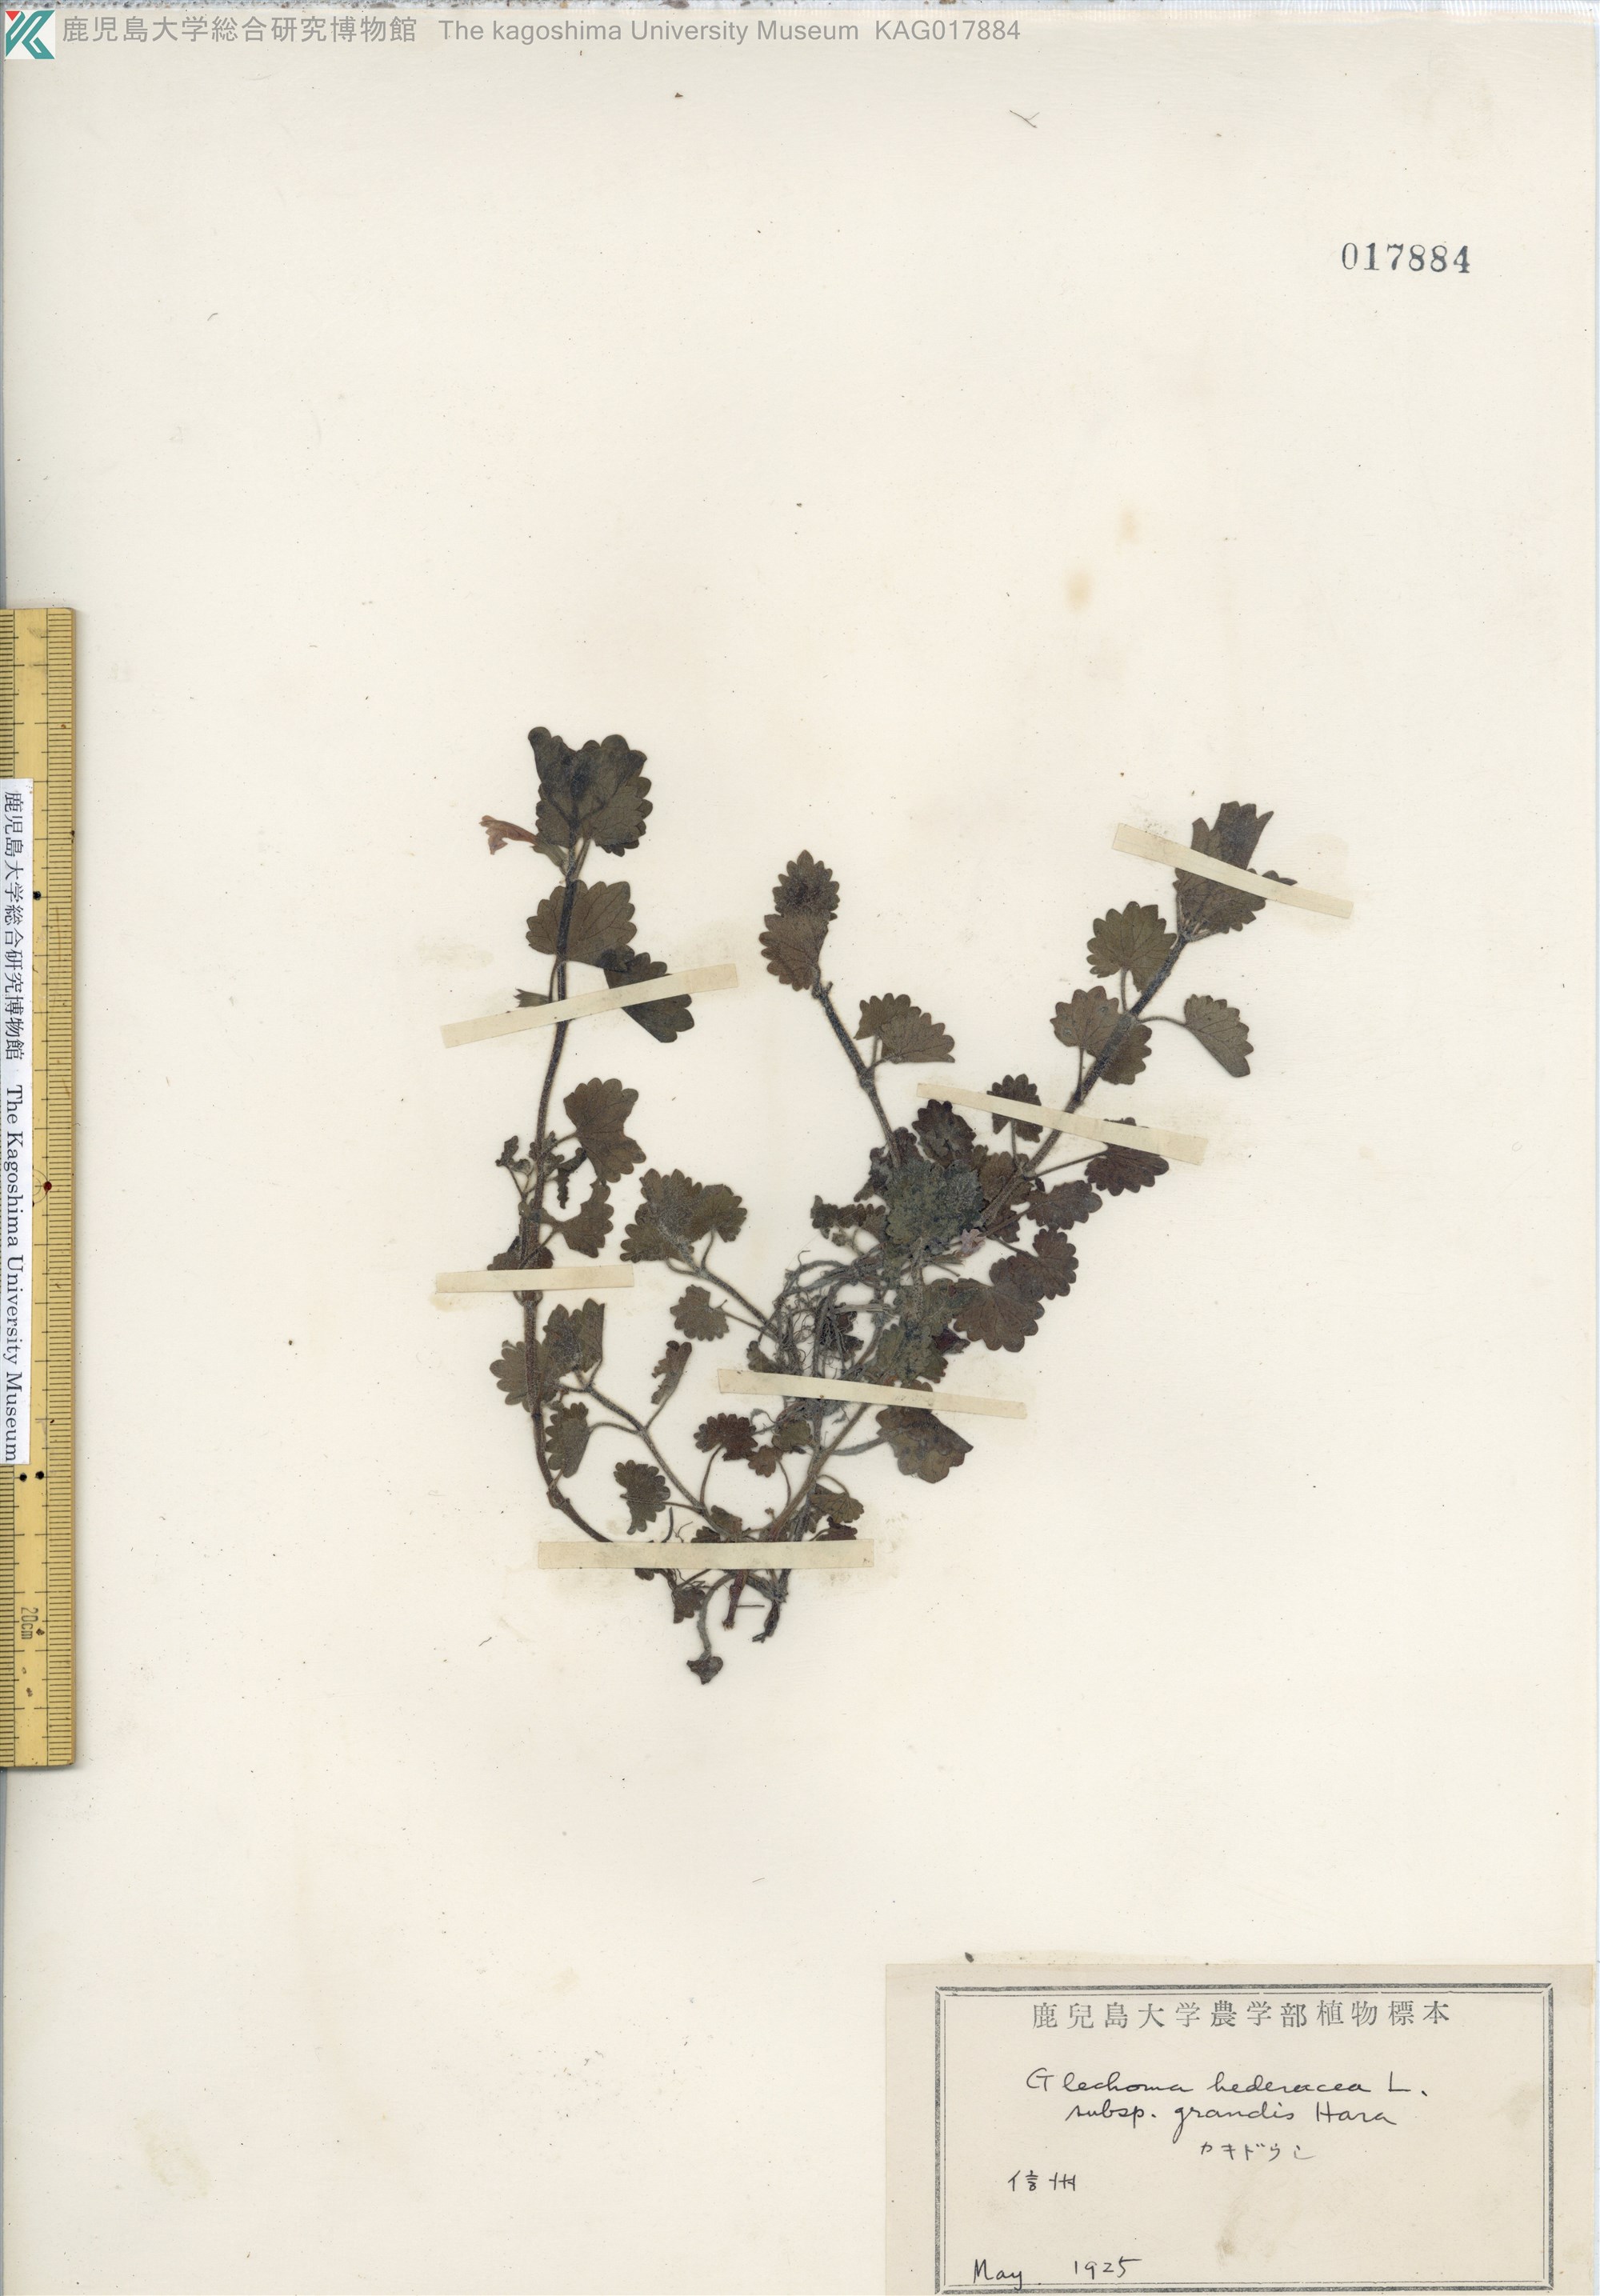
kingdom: Plantae
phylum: Tracheophyta
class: Magnoliopsida
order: Lamiales
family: Lamiaceae
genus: Glechoma
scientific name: Glechoma grandis
